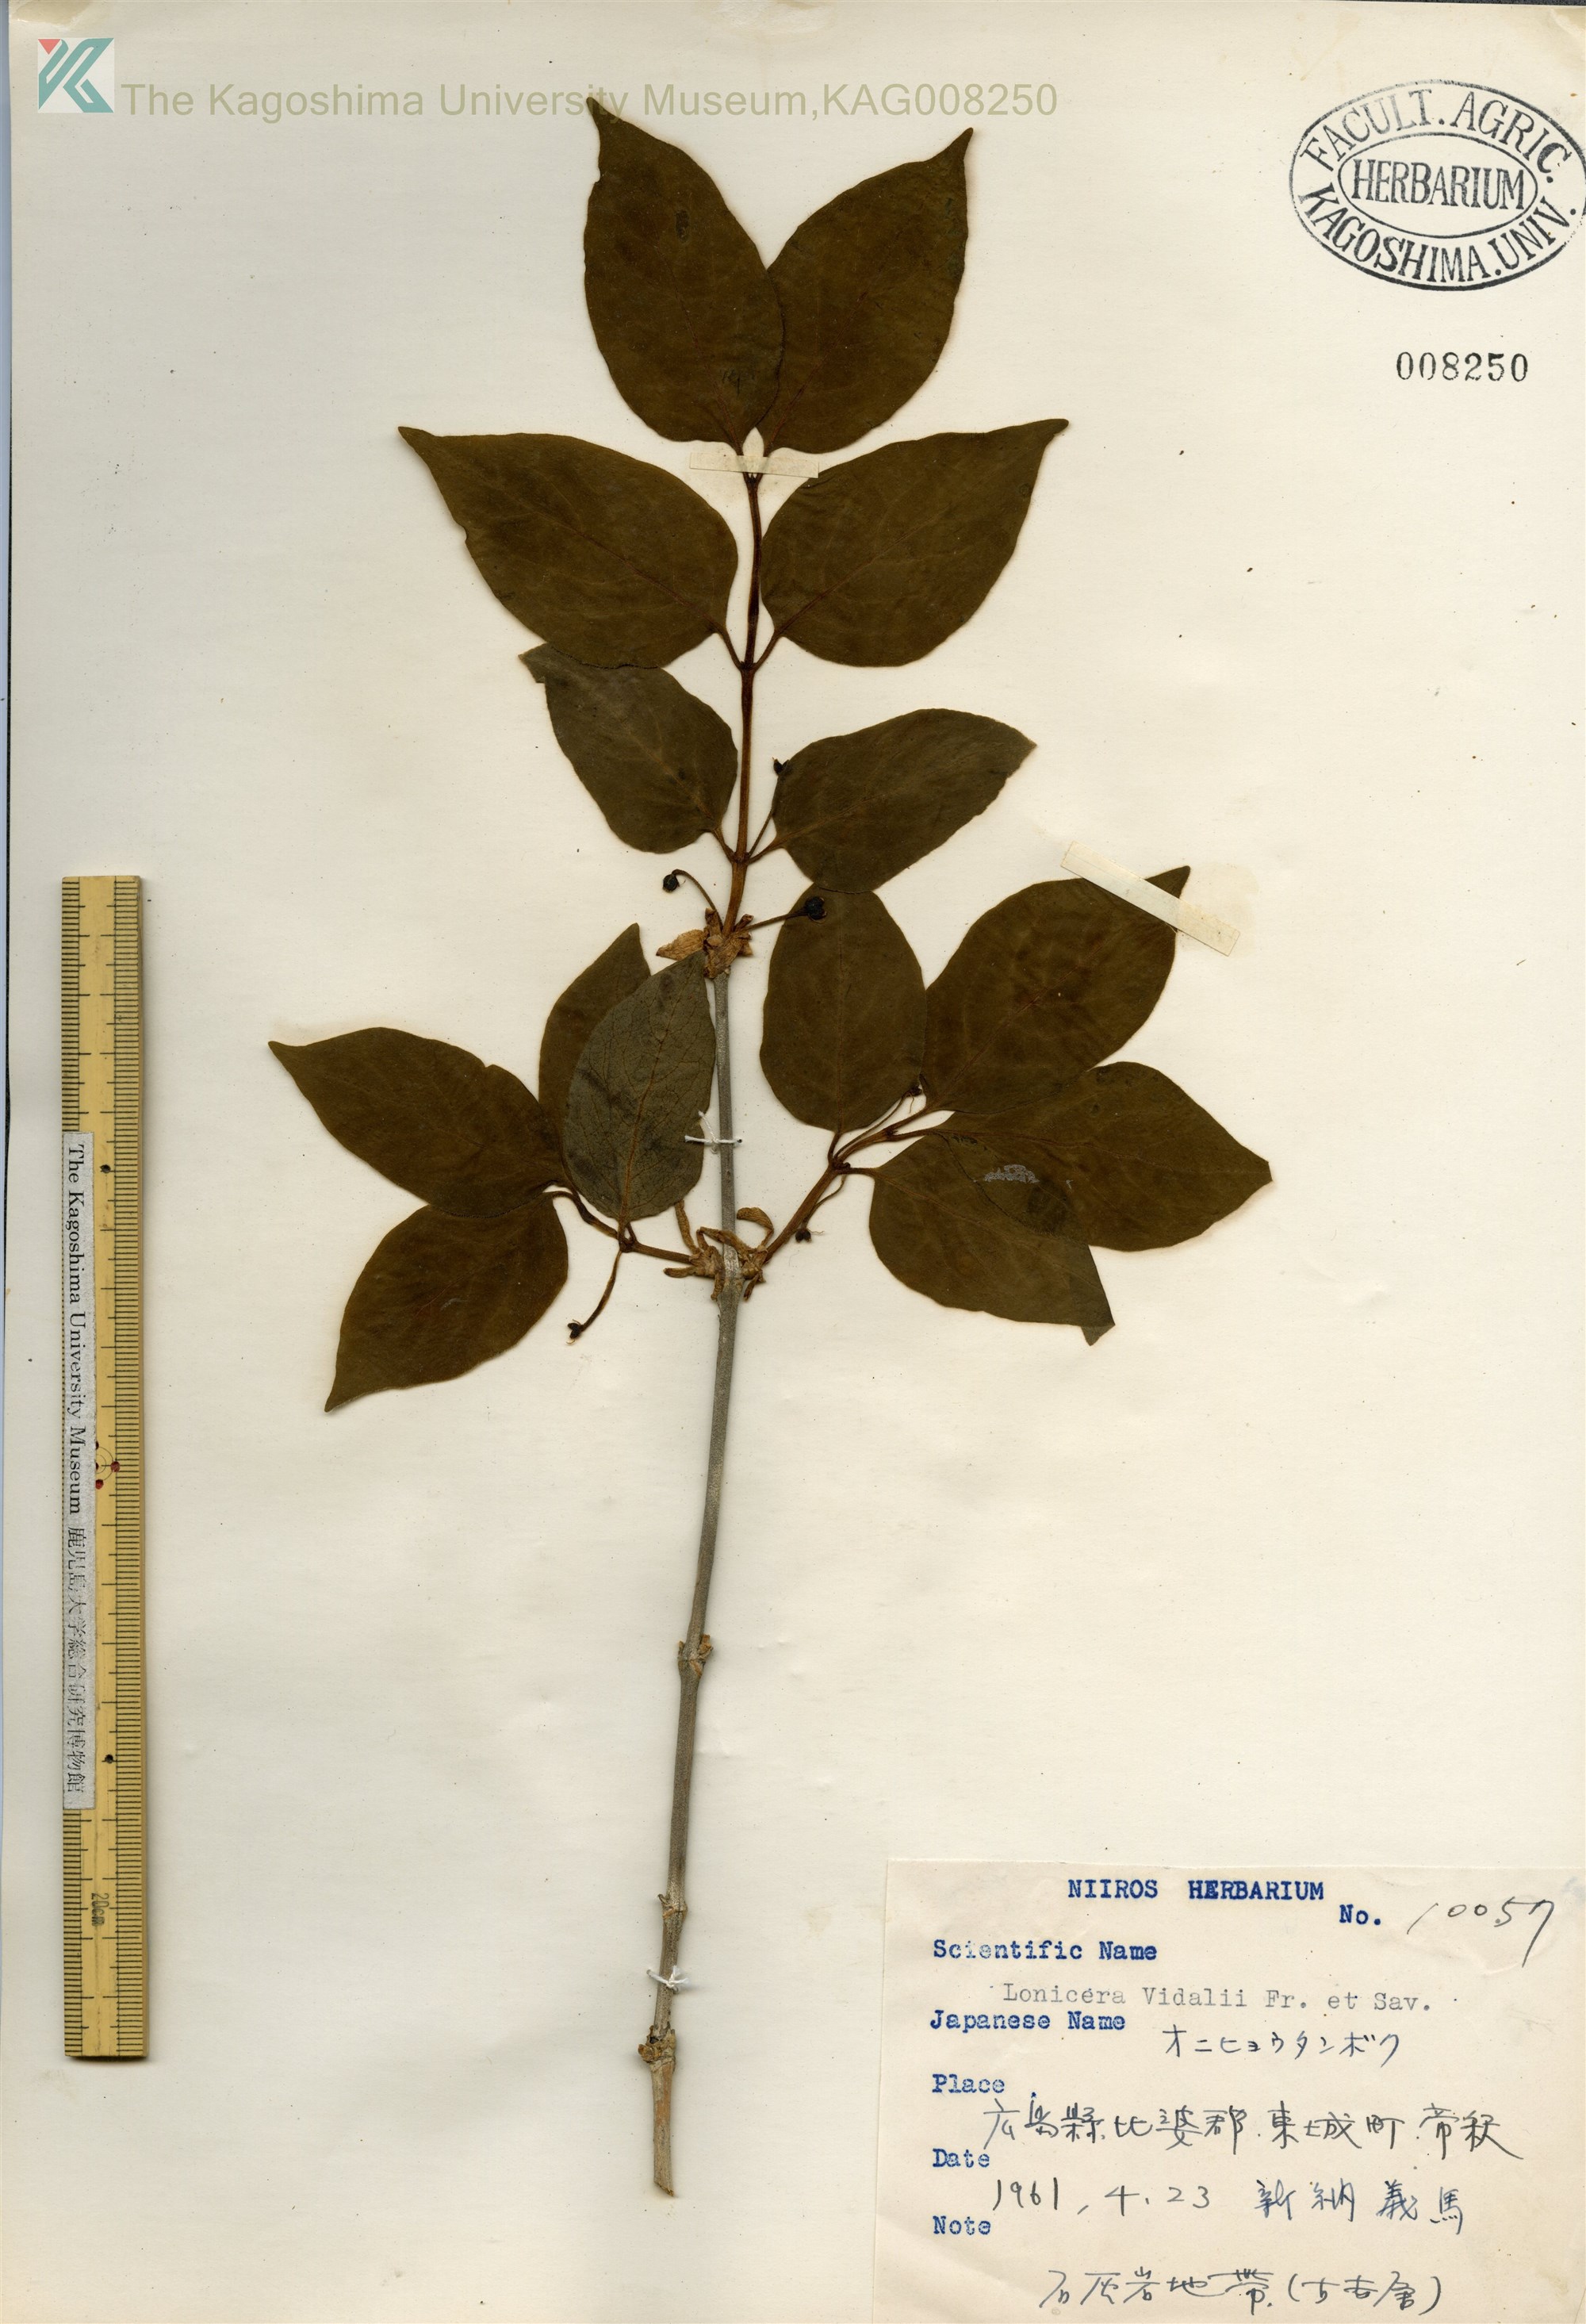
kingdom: Plantae
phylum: Tracheophyta
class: Magnoliopsida
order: Dipsacales
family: Caprifoliaceae
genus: Lonicera
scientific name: Lonicera vidalii
